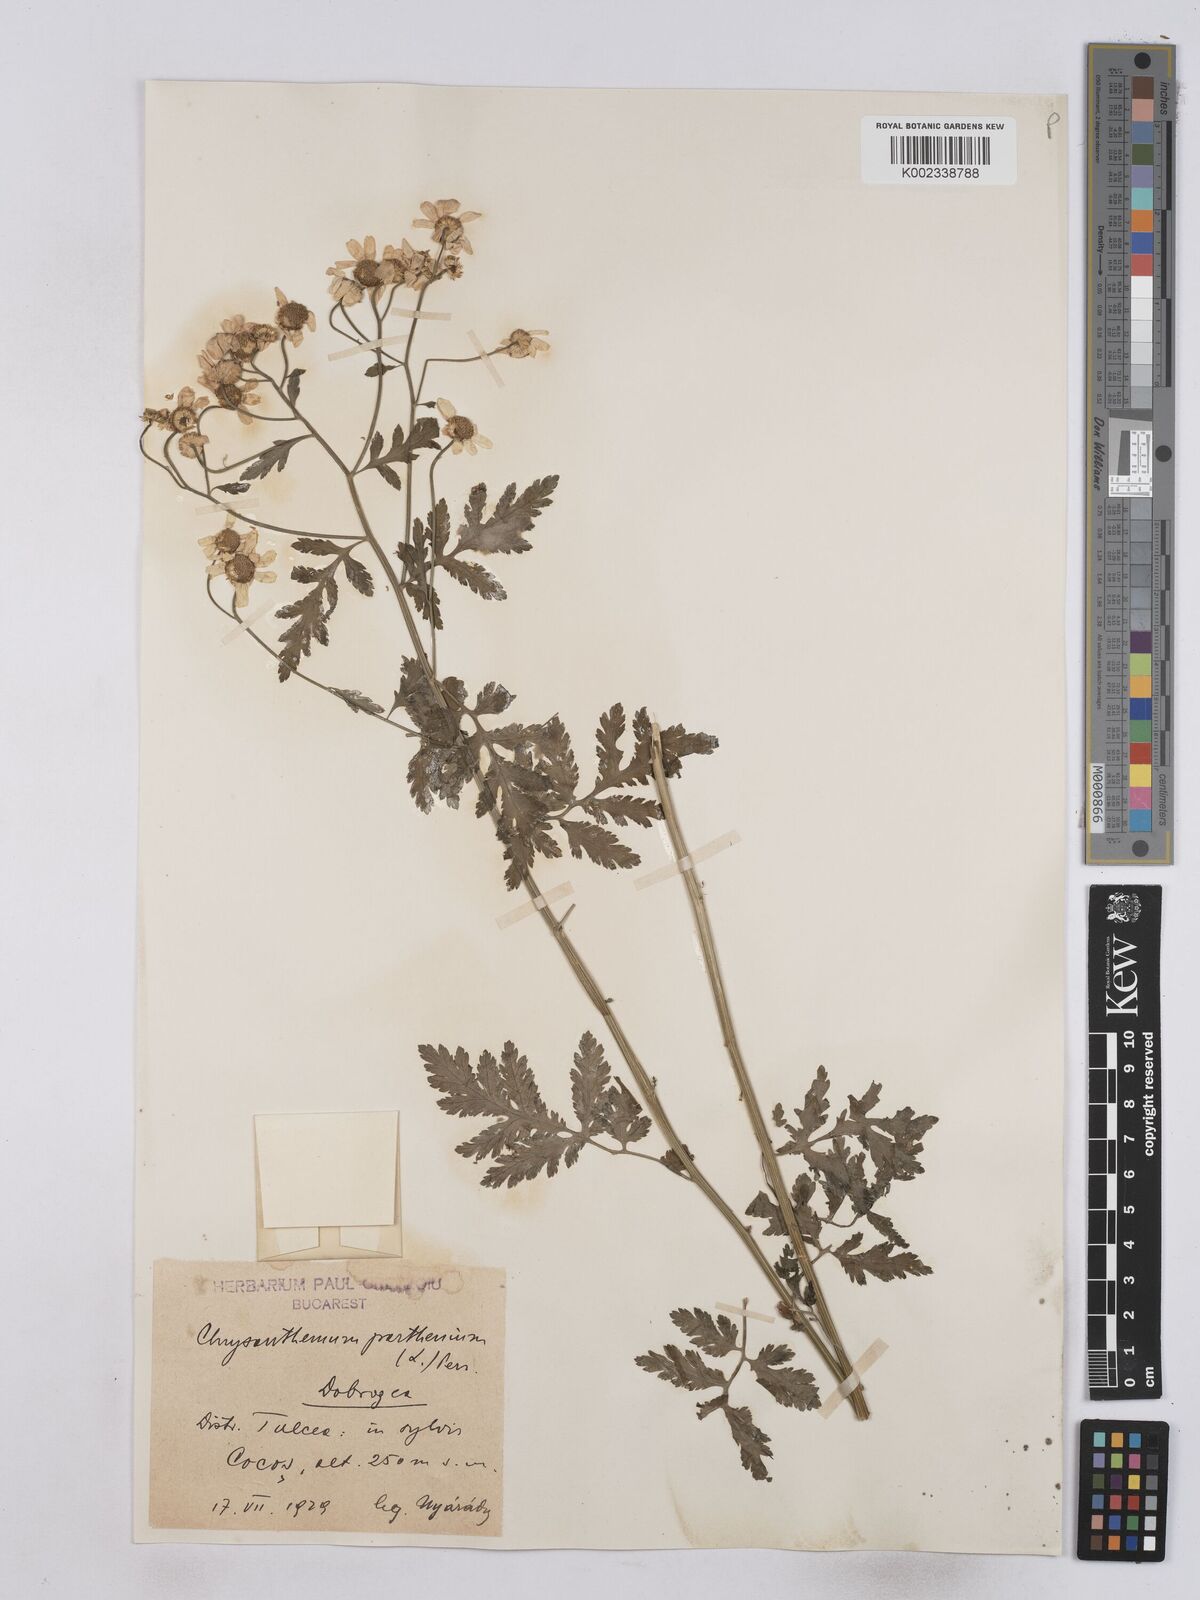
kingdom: Plantae
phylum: Tracheophyta
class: Magnoliopsida
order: Asterales
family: Asteraceae
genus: Tanacetum
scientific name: Tanacetum parthenium
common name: Feverfew
